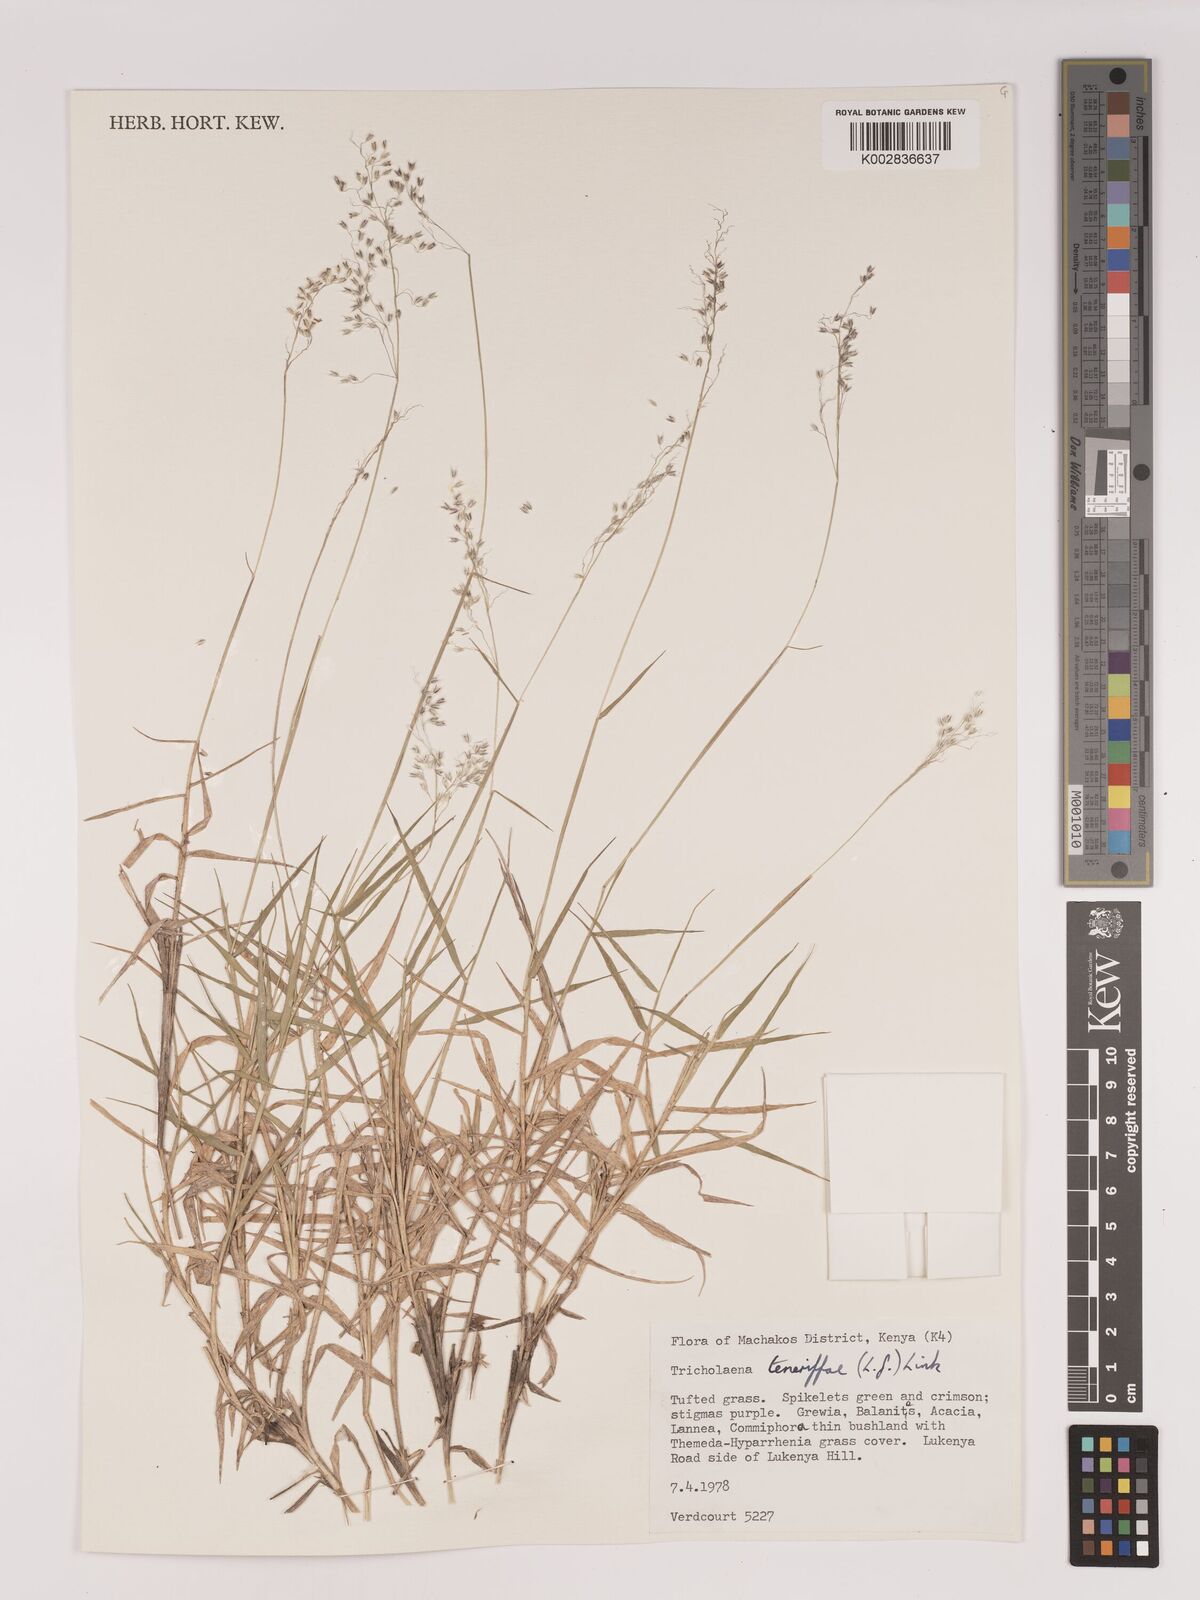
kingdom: Plantae
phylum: Tracheophyta
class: Liliopsida
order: Poales
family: Poaceae
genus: Tricholaena
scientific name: Tricholaena teneriffae
